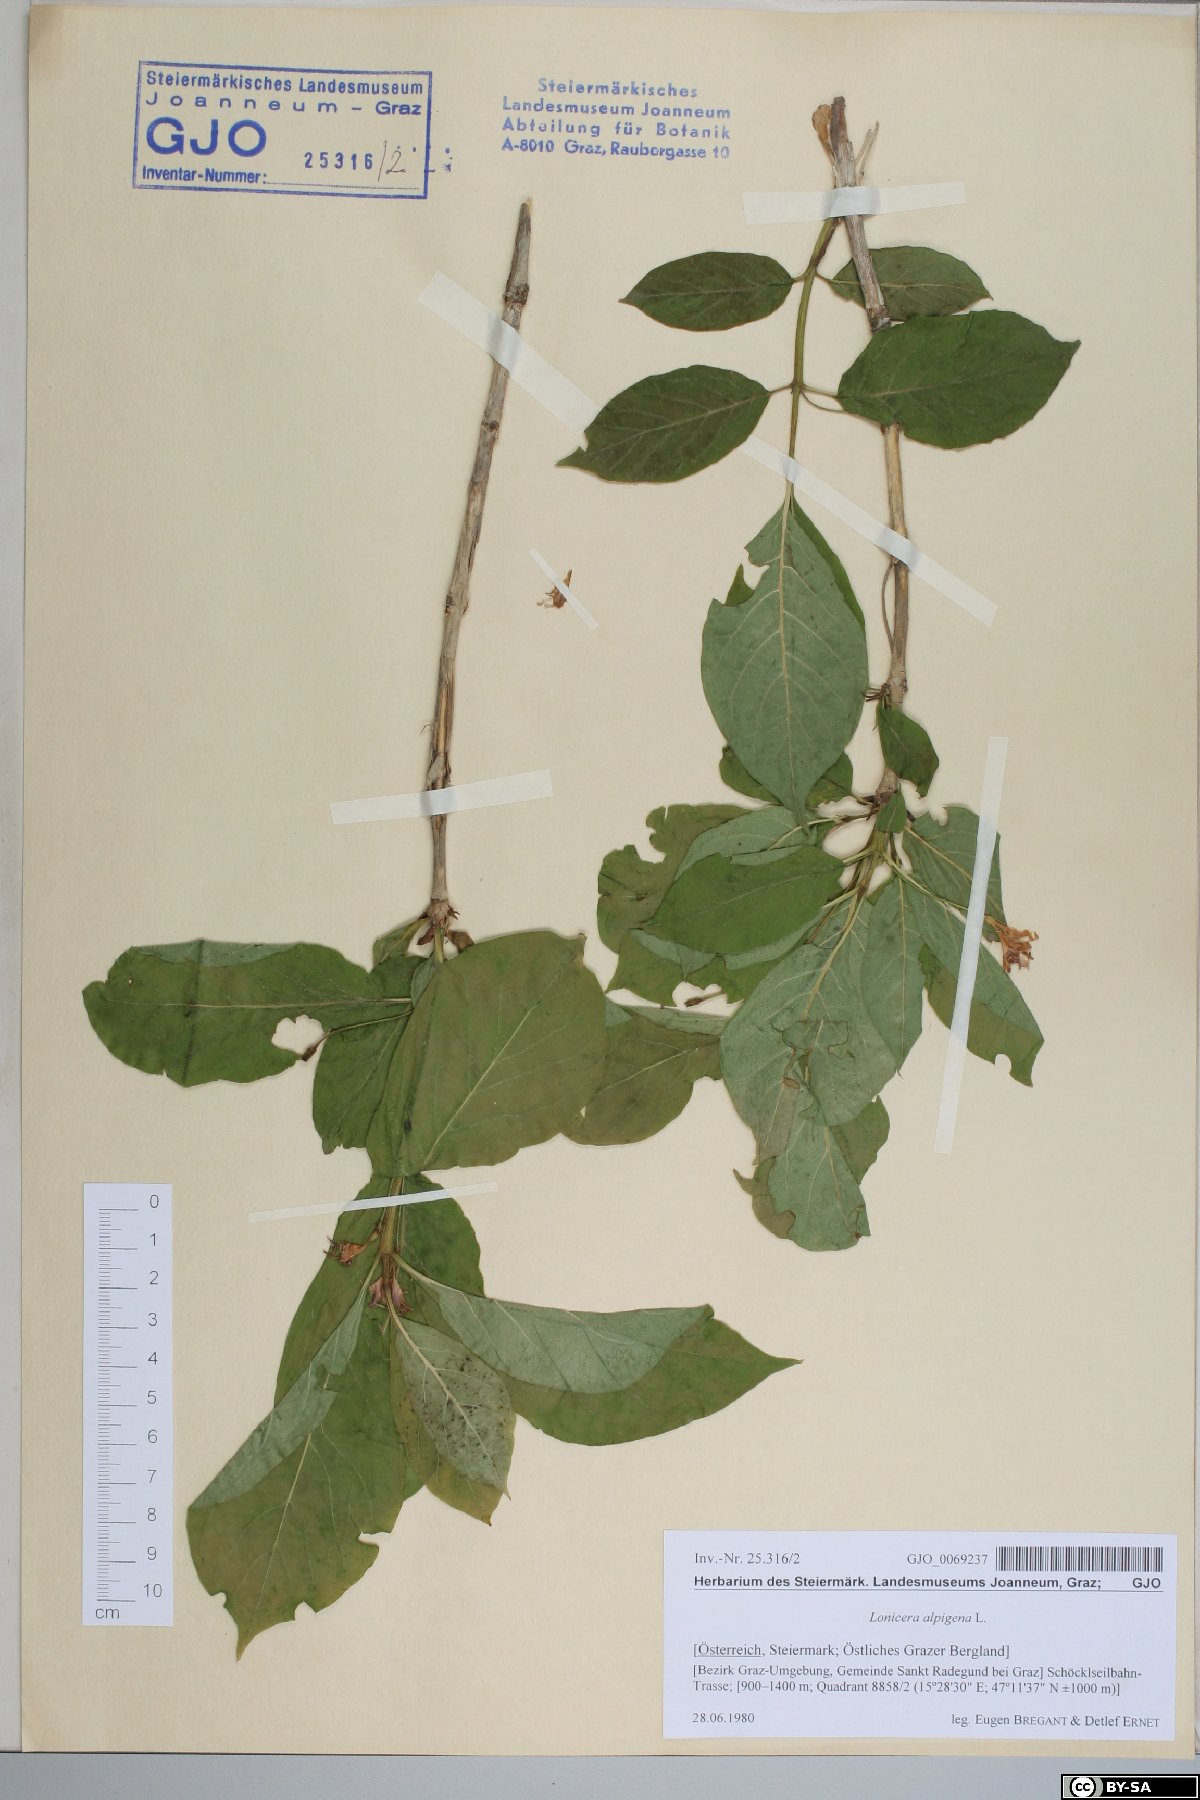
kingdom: Plantae
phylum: Tracheophyta
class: Magnoliopsida
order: Dipsacales
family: Caprifoliaceae
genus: Lonicera
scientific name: Lonicera alpigena
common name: Alpine honeysuckle
